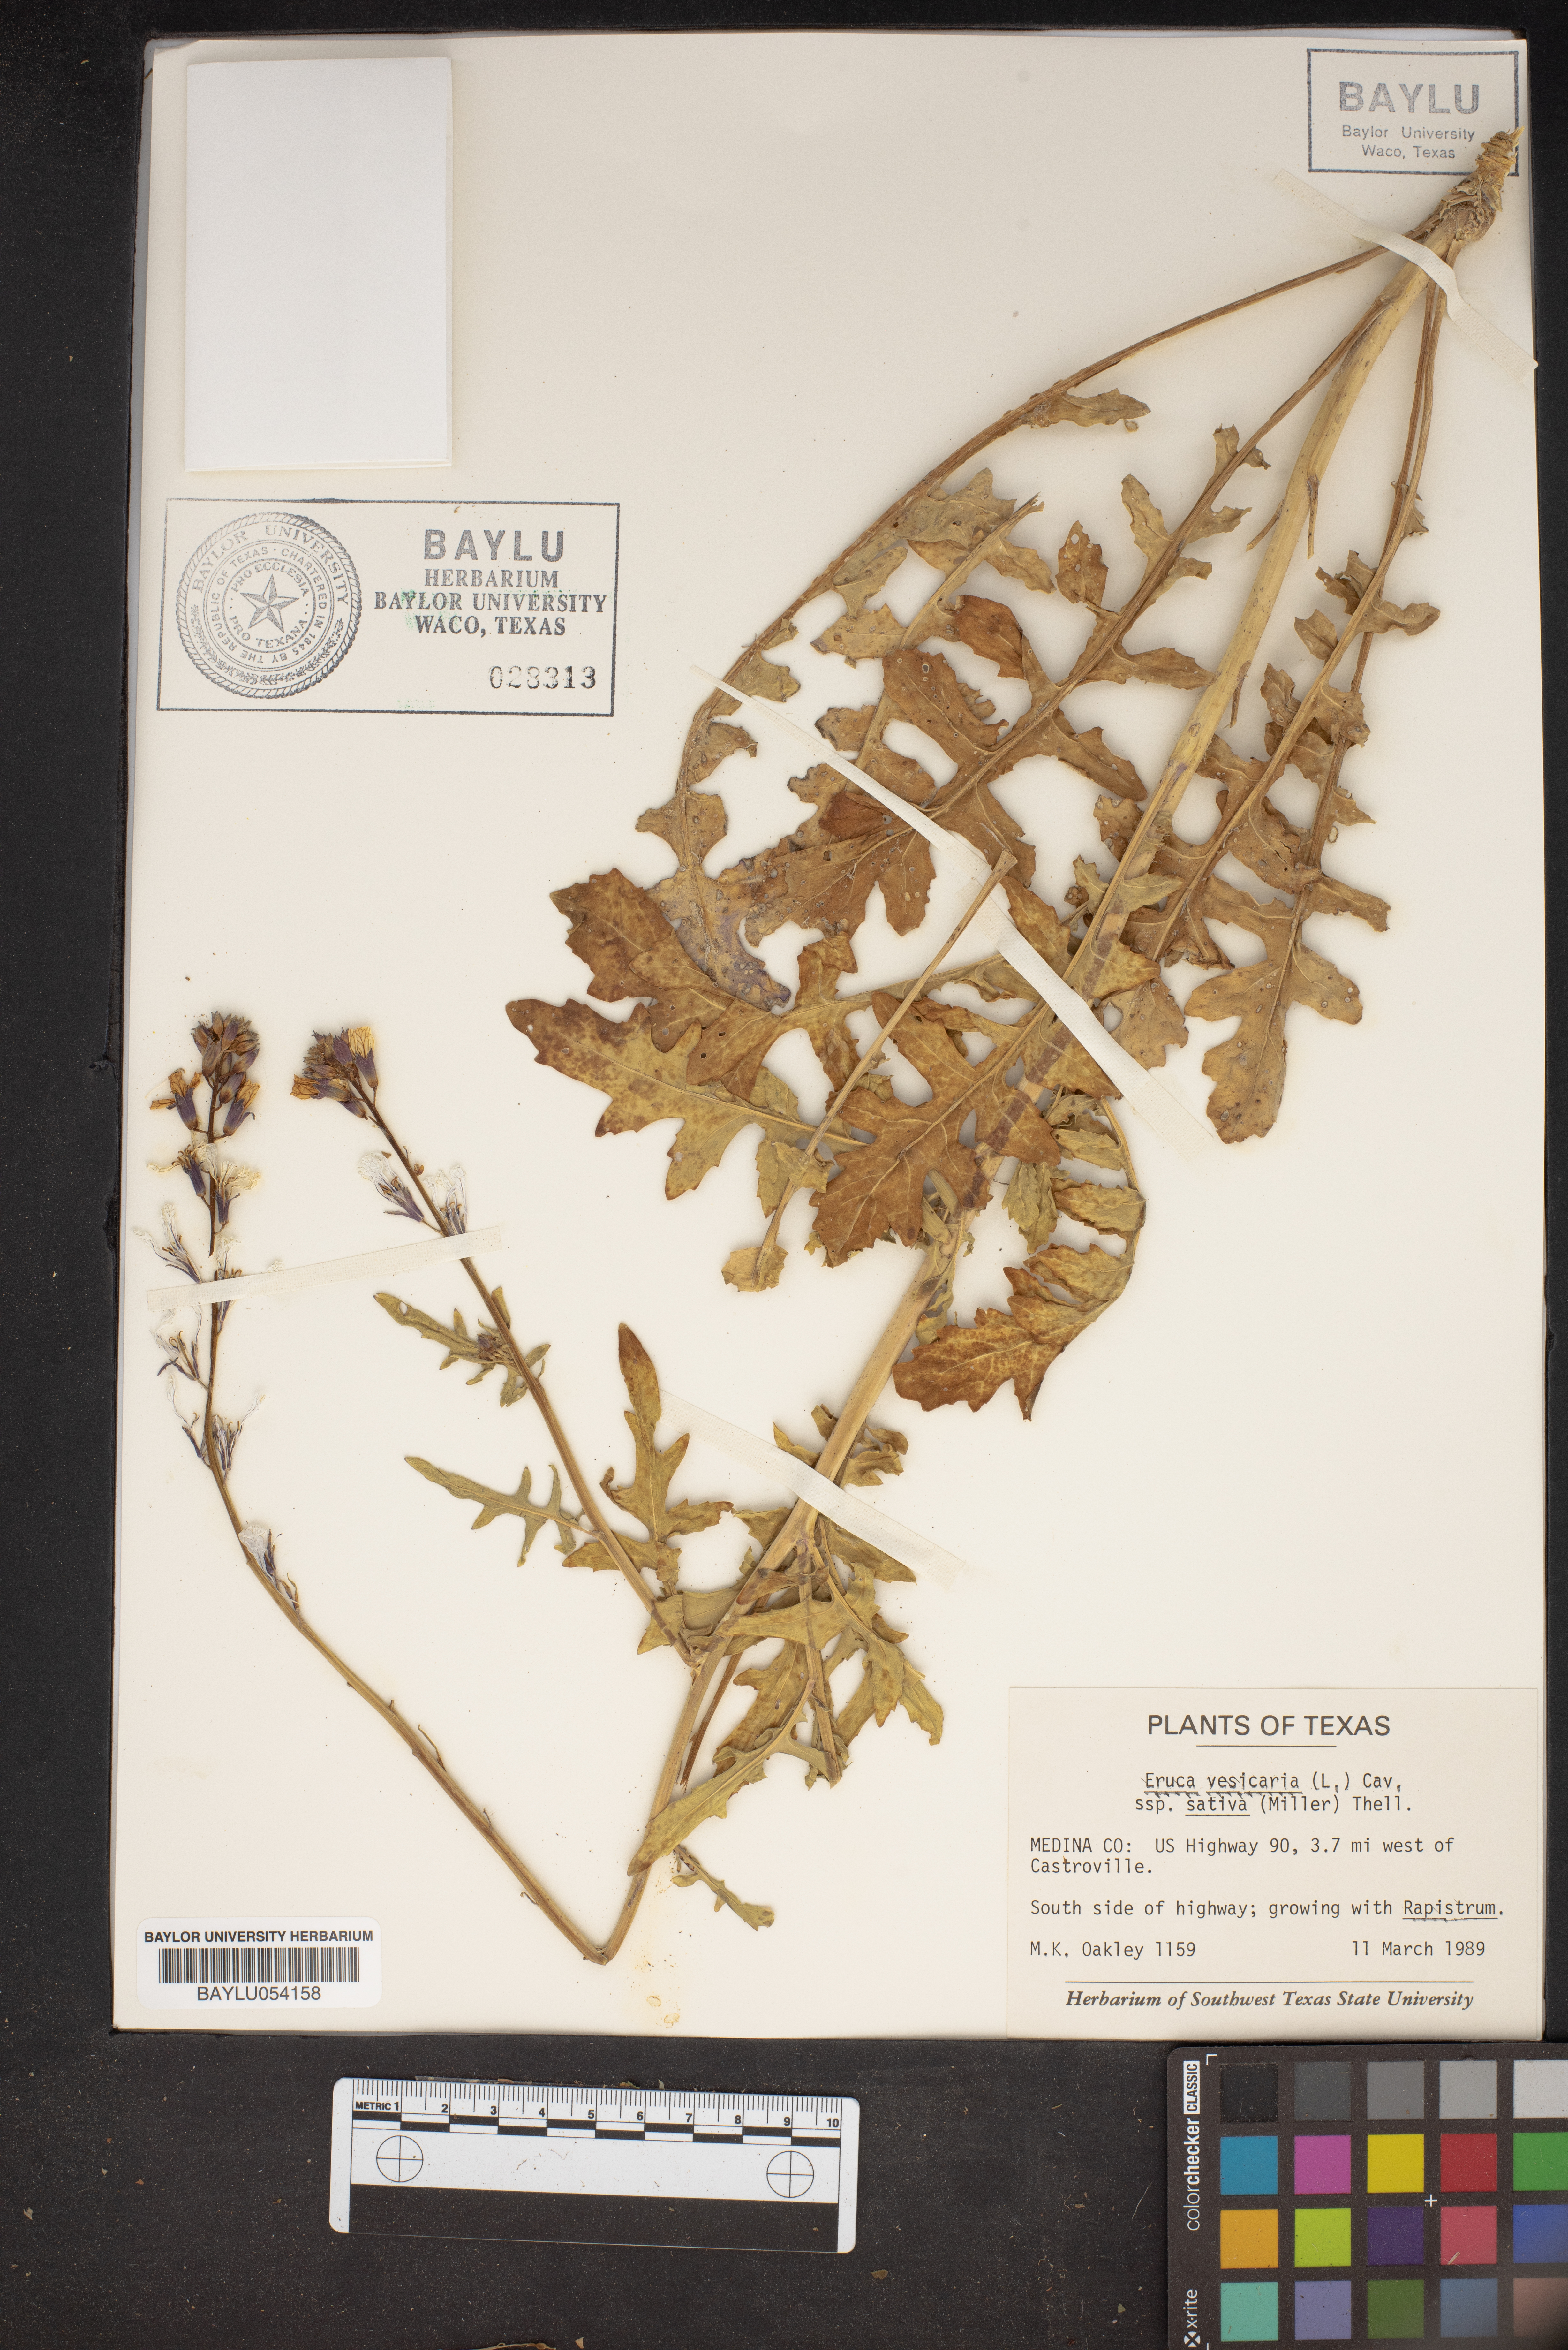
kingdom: Plantae
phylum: Tracheophyta
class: Magnoliopsida
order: Brassicales
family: Brassicaceae
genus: Eruca
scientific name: Eruca vesicaria
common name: Garden rocket
